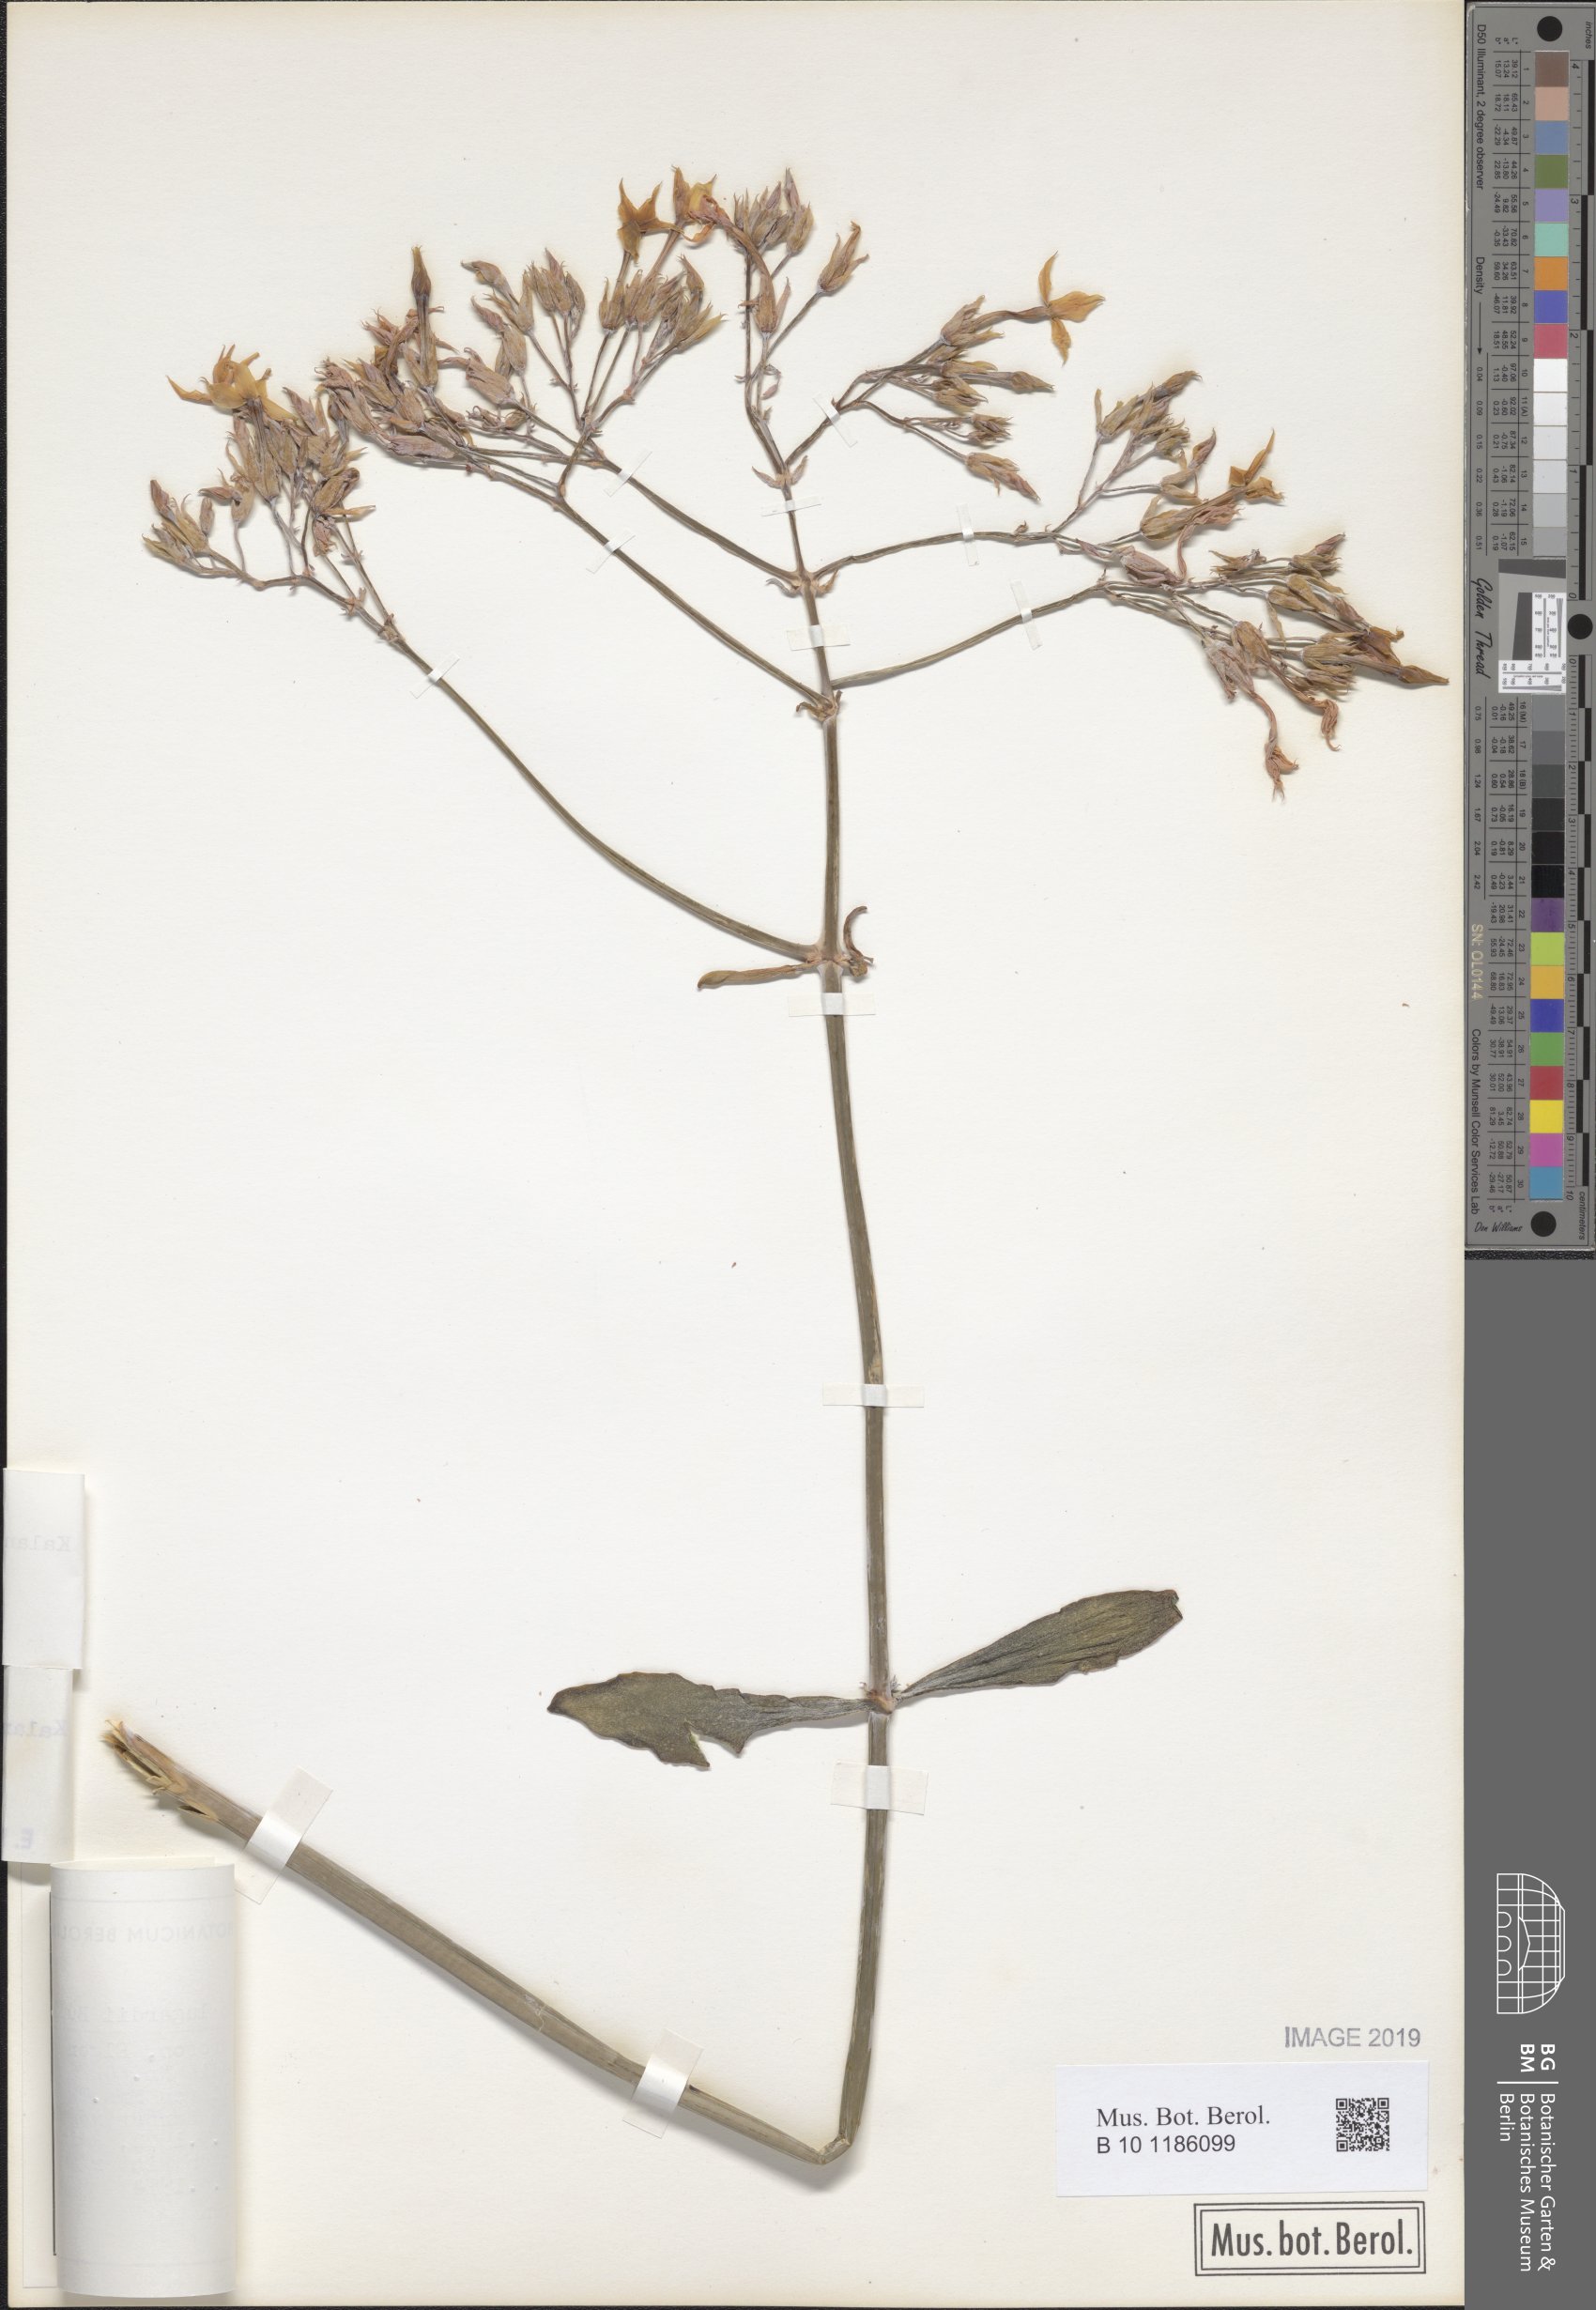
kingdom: Plantae
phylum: Tracheophyta
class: Magnoliopsida
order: Saxifragales
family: Crassulaceae
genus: Kalanchoe
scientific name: Kalanchoe marmorata
